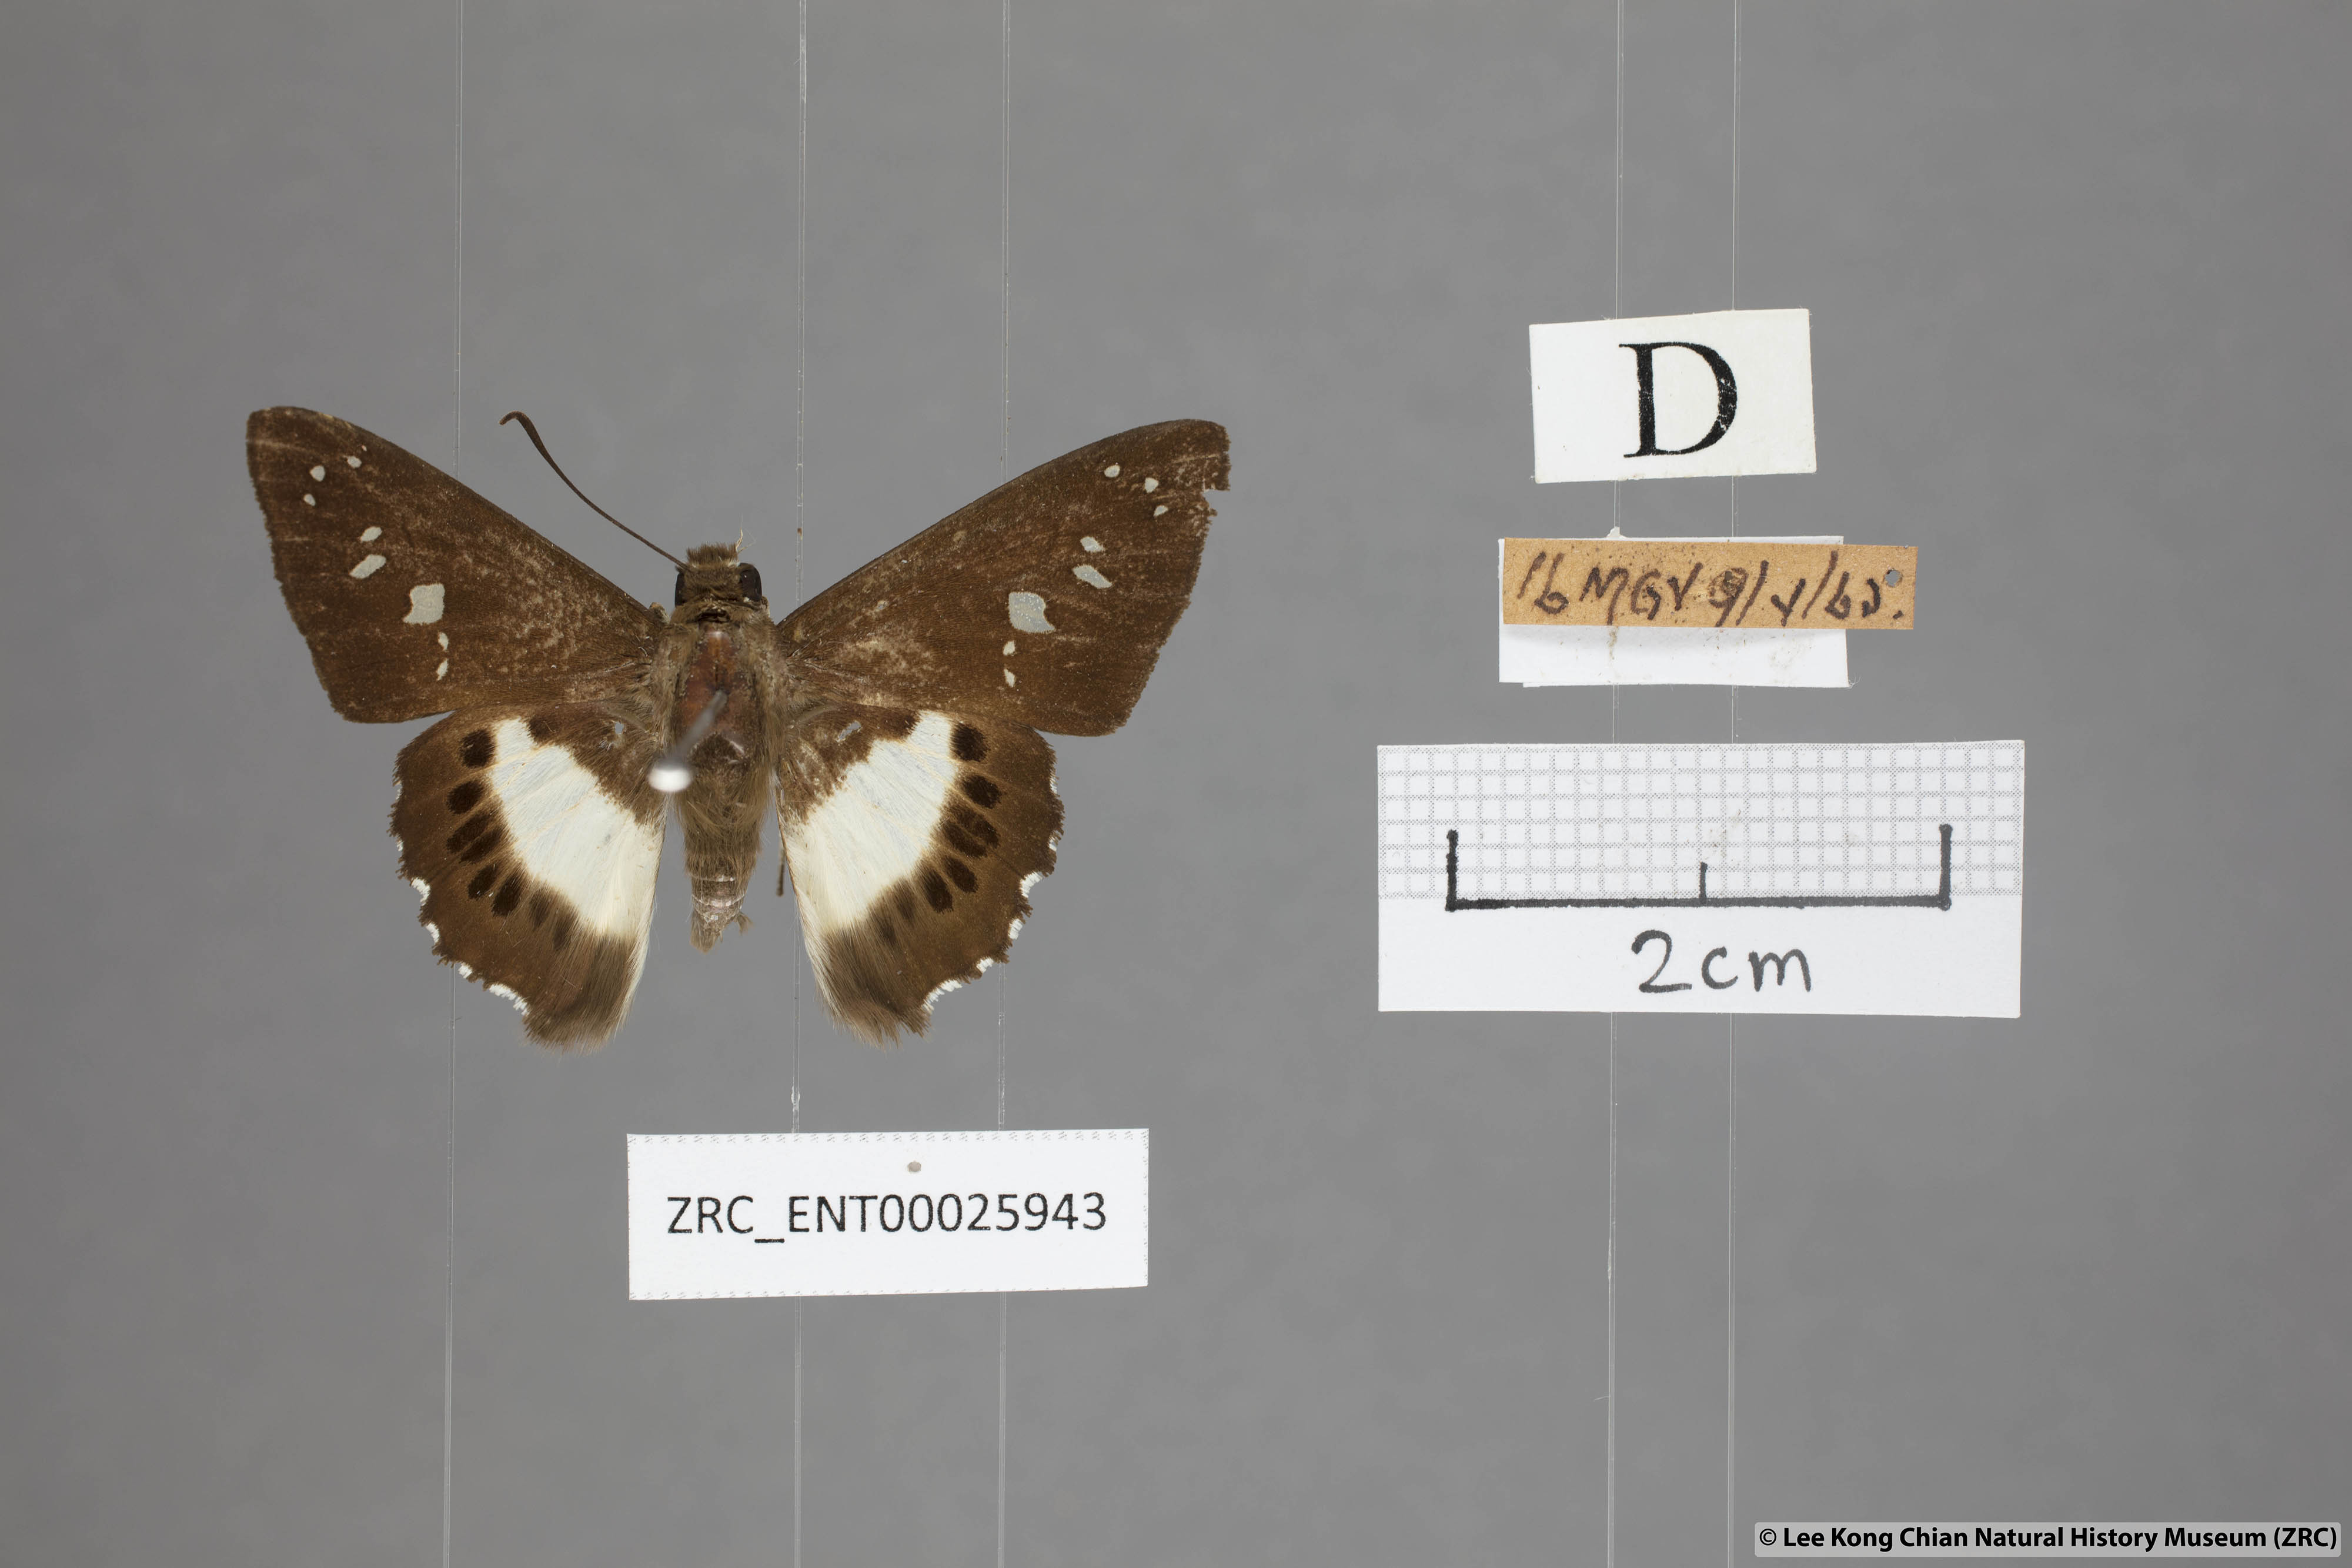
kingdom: Animalia
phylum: Arthropoda
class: Insecta
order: Lepidoptera
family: Hesperiidae
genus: Seseria
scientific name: Seseria affinis
